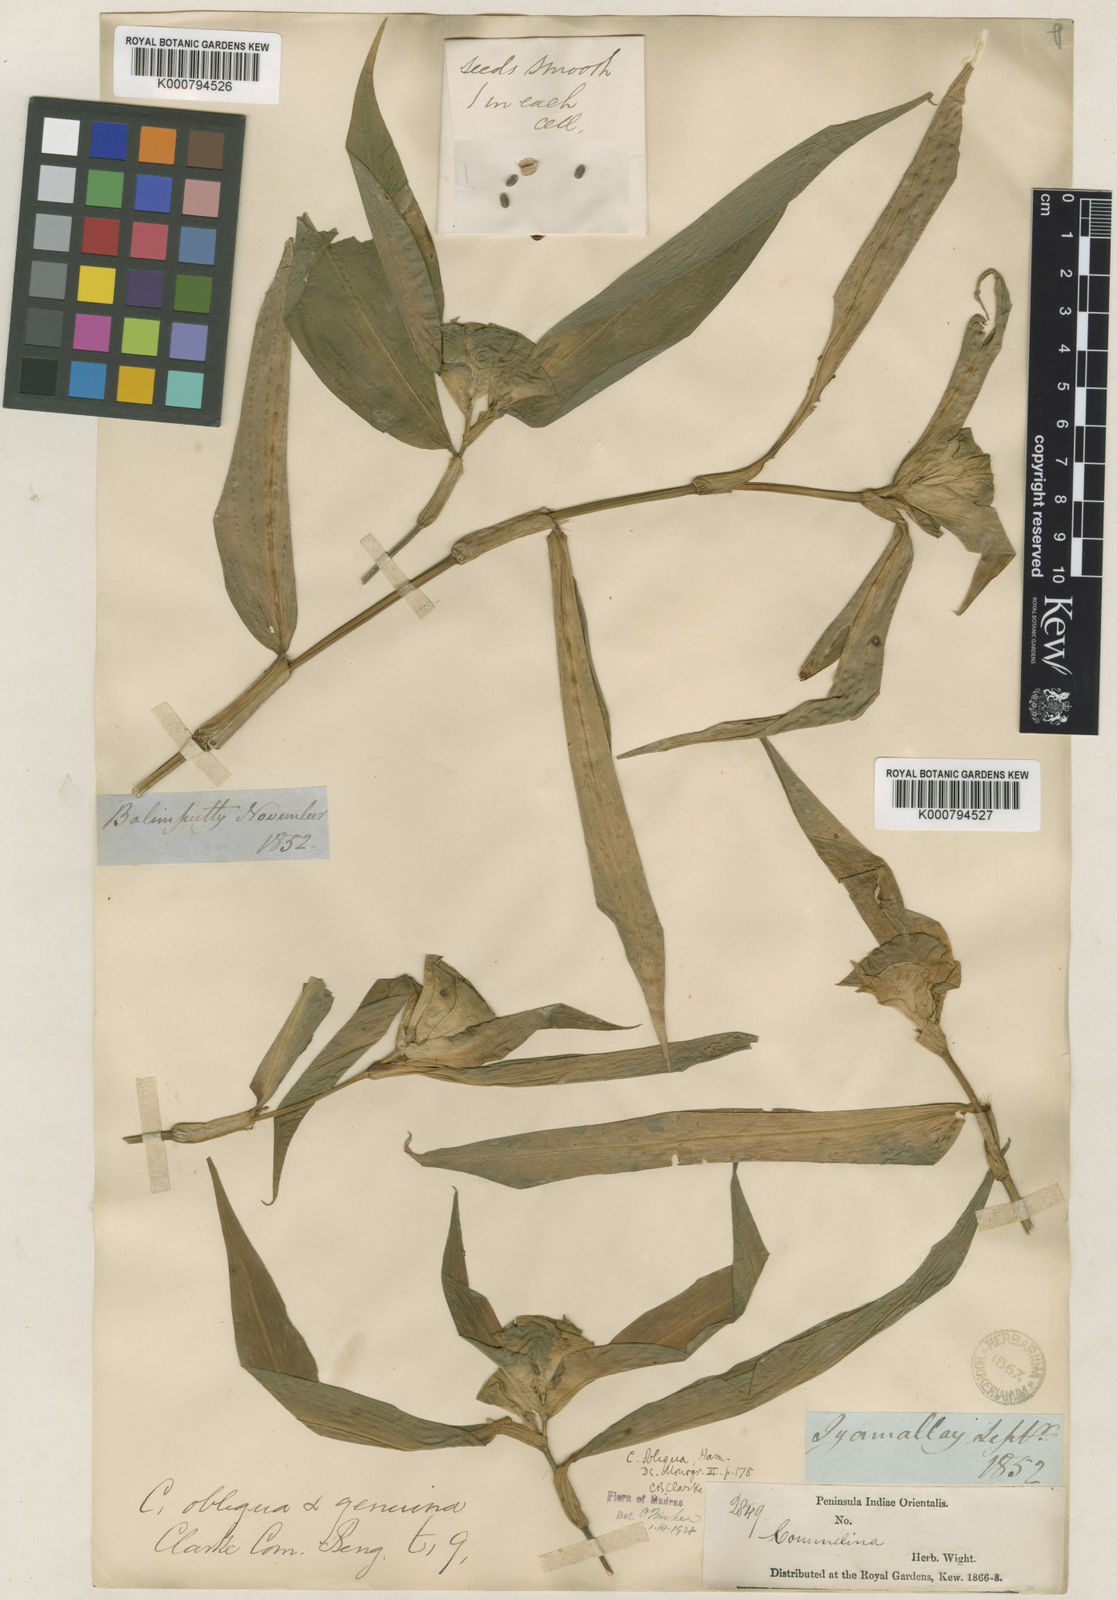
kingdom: Plantae
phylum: Tracheophyta
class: Liliopsida
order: Commelinales
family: Commelinaceae
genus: Commelina
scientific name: Commelina paludosa
